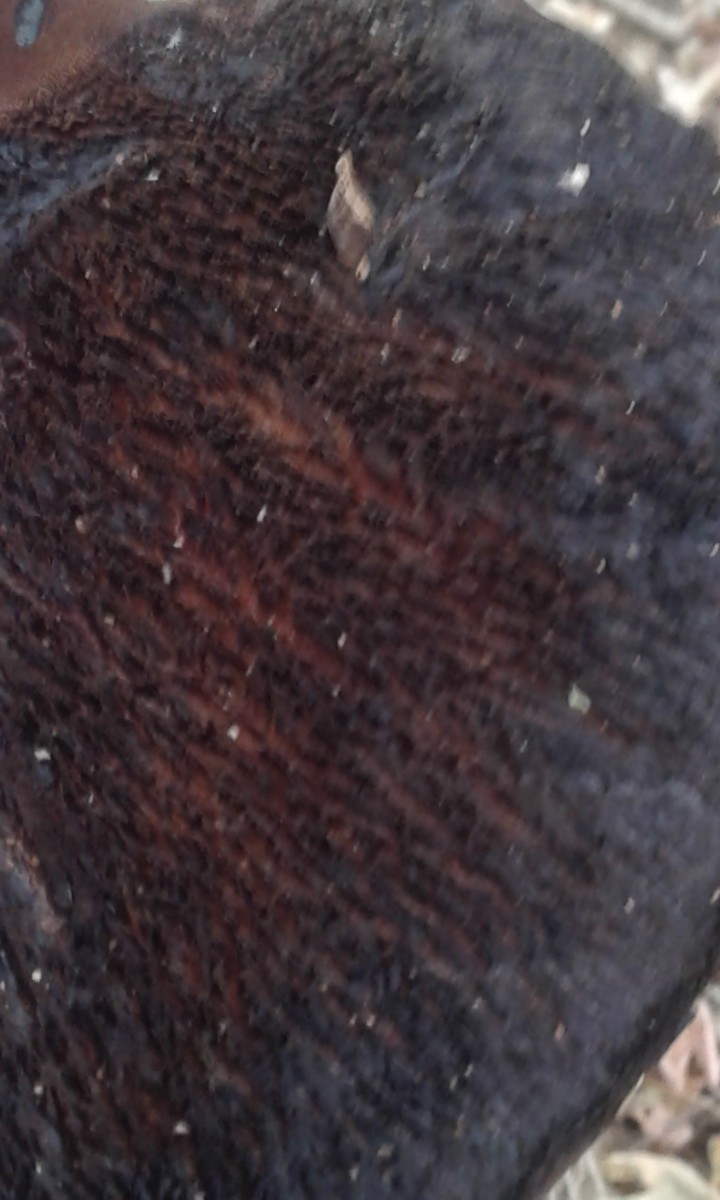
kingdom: Fungi
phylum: Basidiomycota
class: Agaricomycetes
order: Agaricales
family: Fistulinaceae
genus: Fistulina
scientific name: Fistulina hepatica
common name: oksetunge
